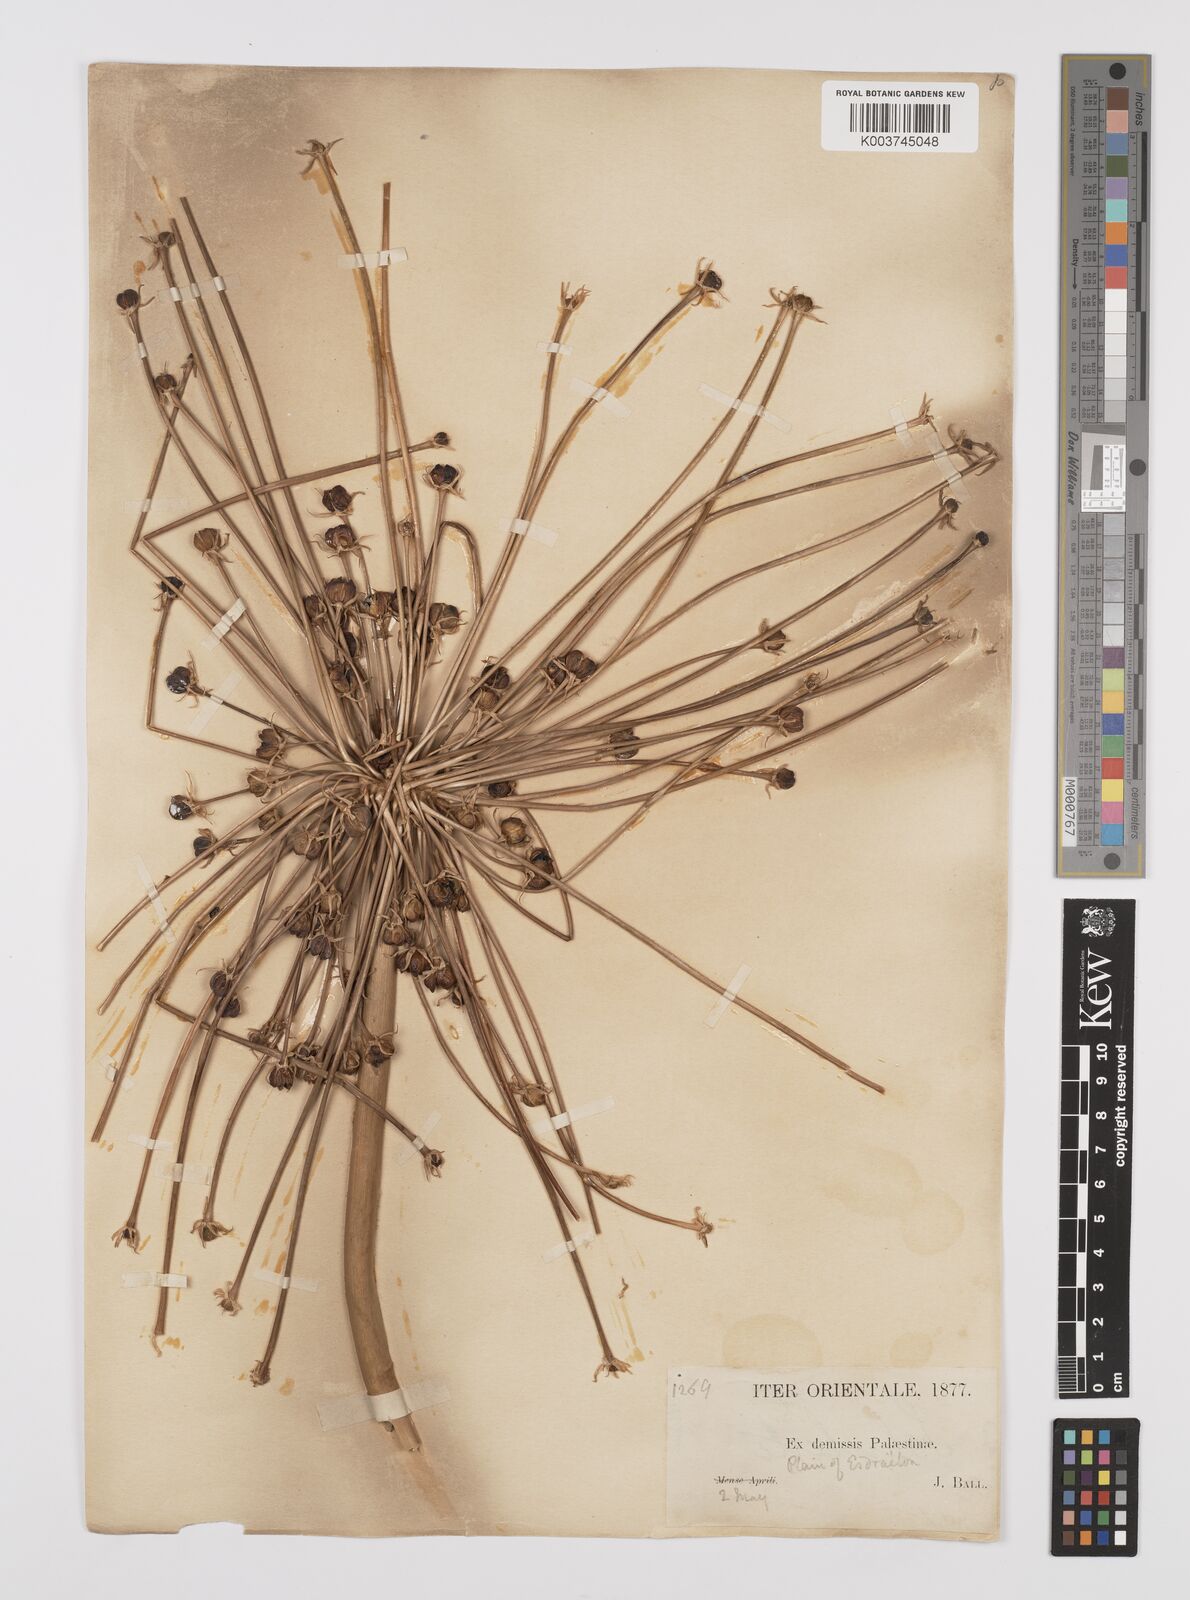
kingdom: Plantae
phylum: Tracheophyta
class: Liliopsida
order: Asparagales
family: Amaryllidaceae
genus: Allium
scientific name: Allium schubertii
